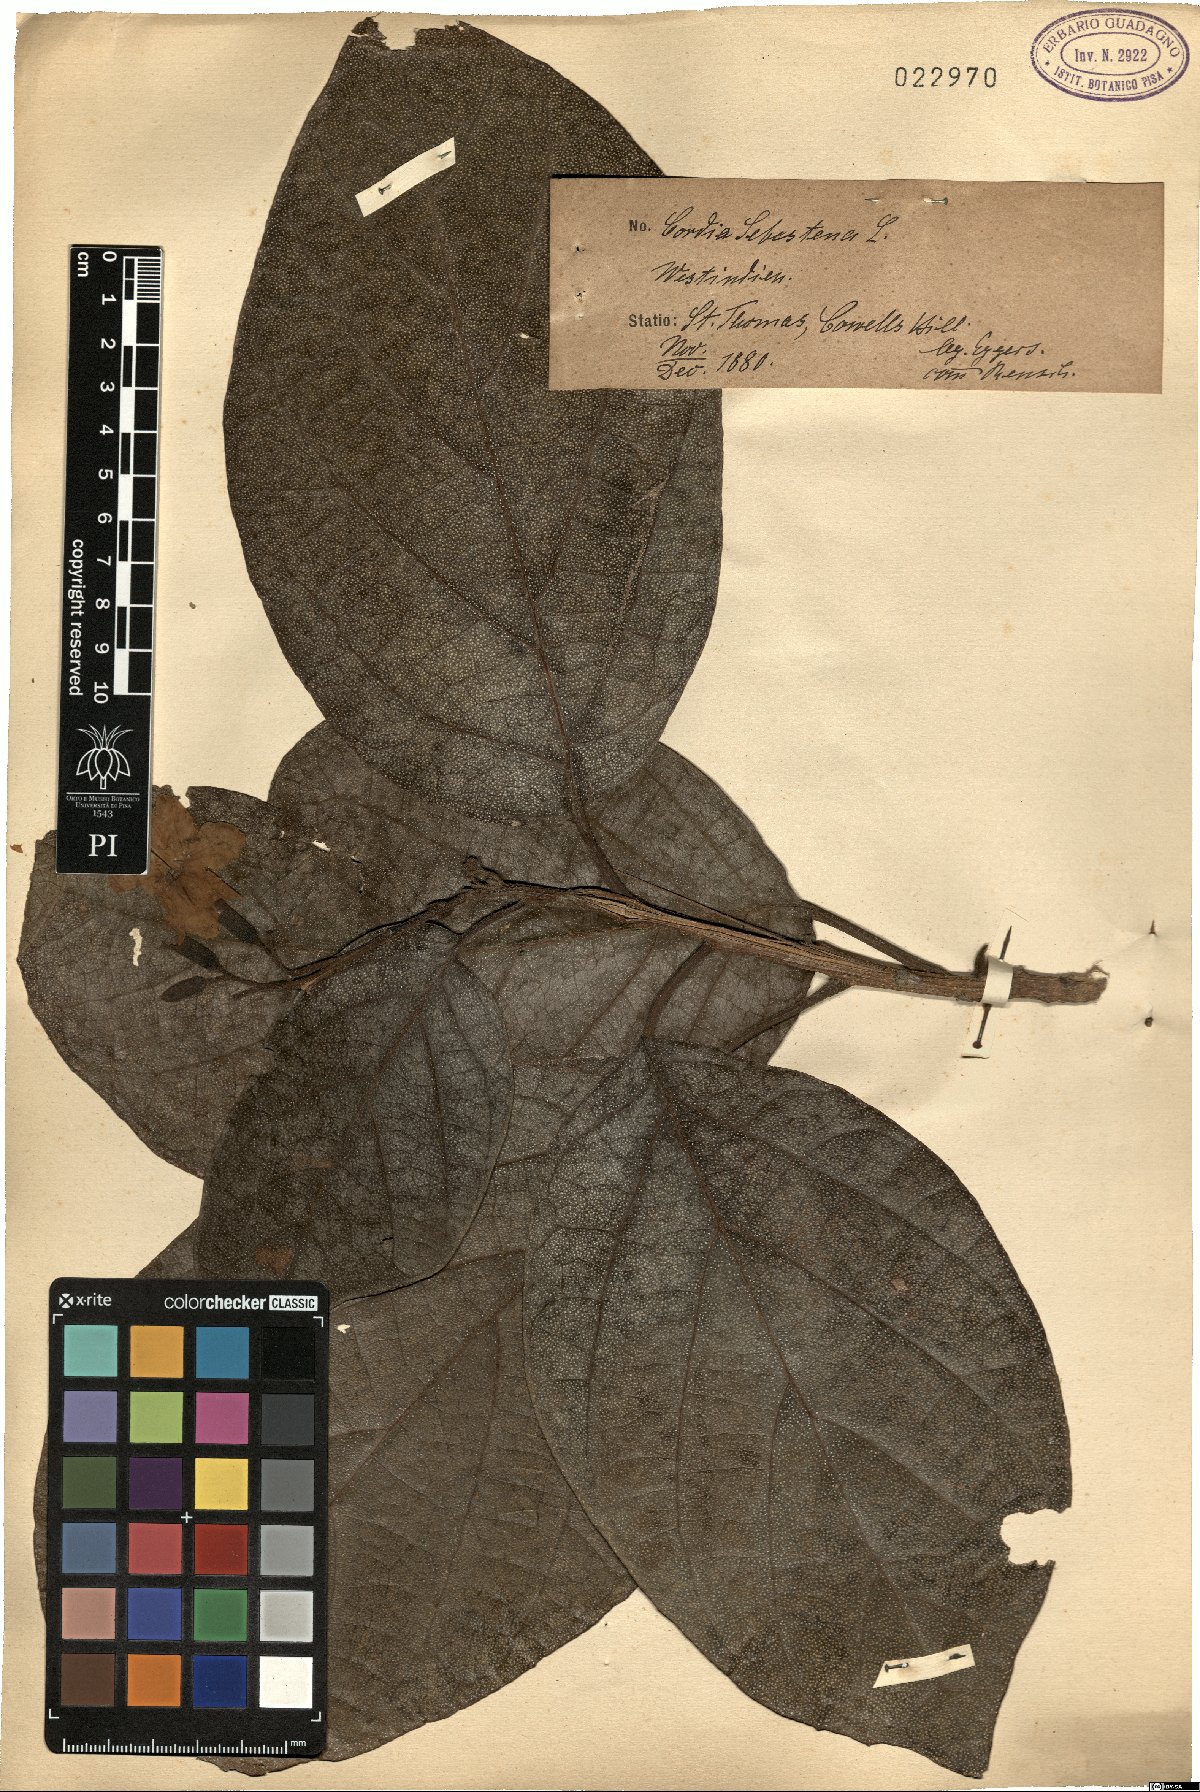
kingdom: Plantae
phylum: Tracheophyta
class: Magnoliopsida
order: Boraginales
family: Cordiaceae
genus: Cordia
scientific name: Cordia sebestena
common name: Largeleaf geigertree
